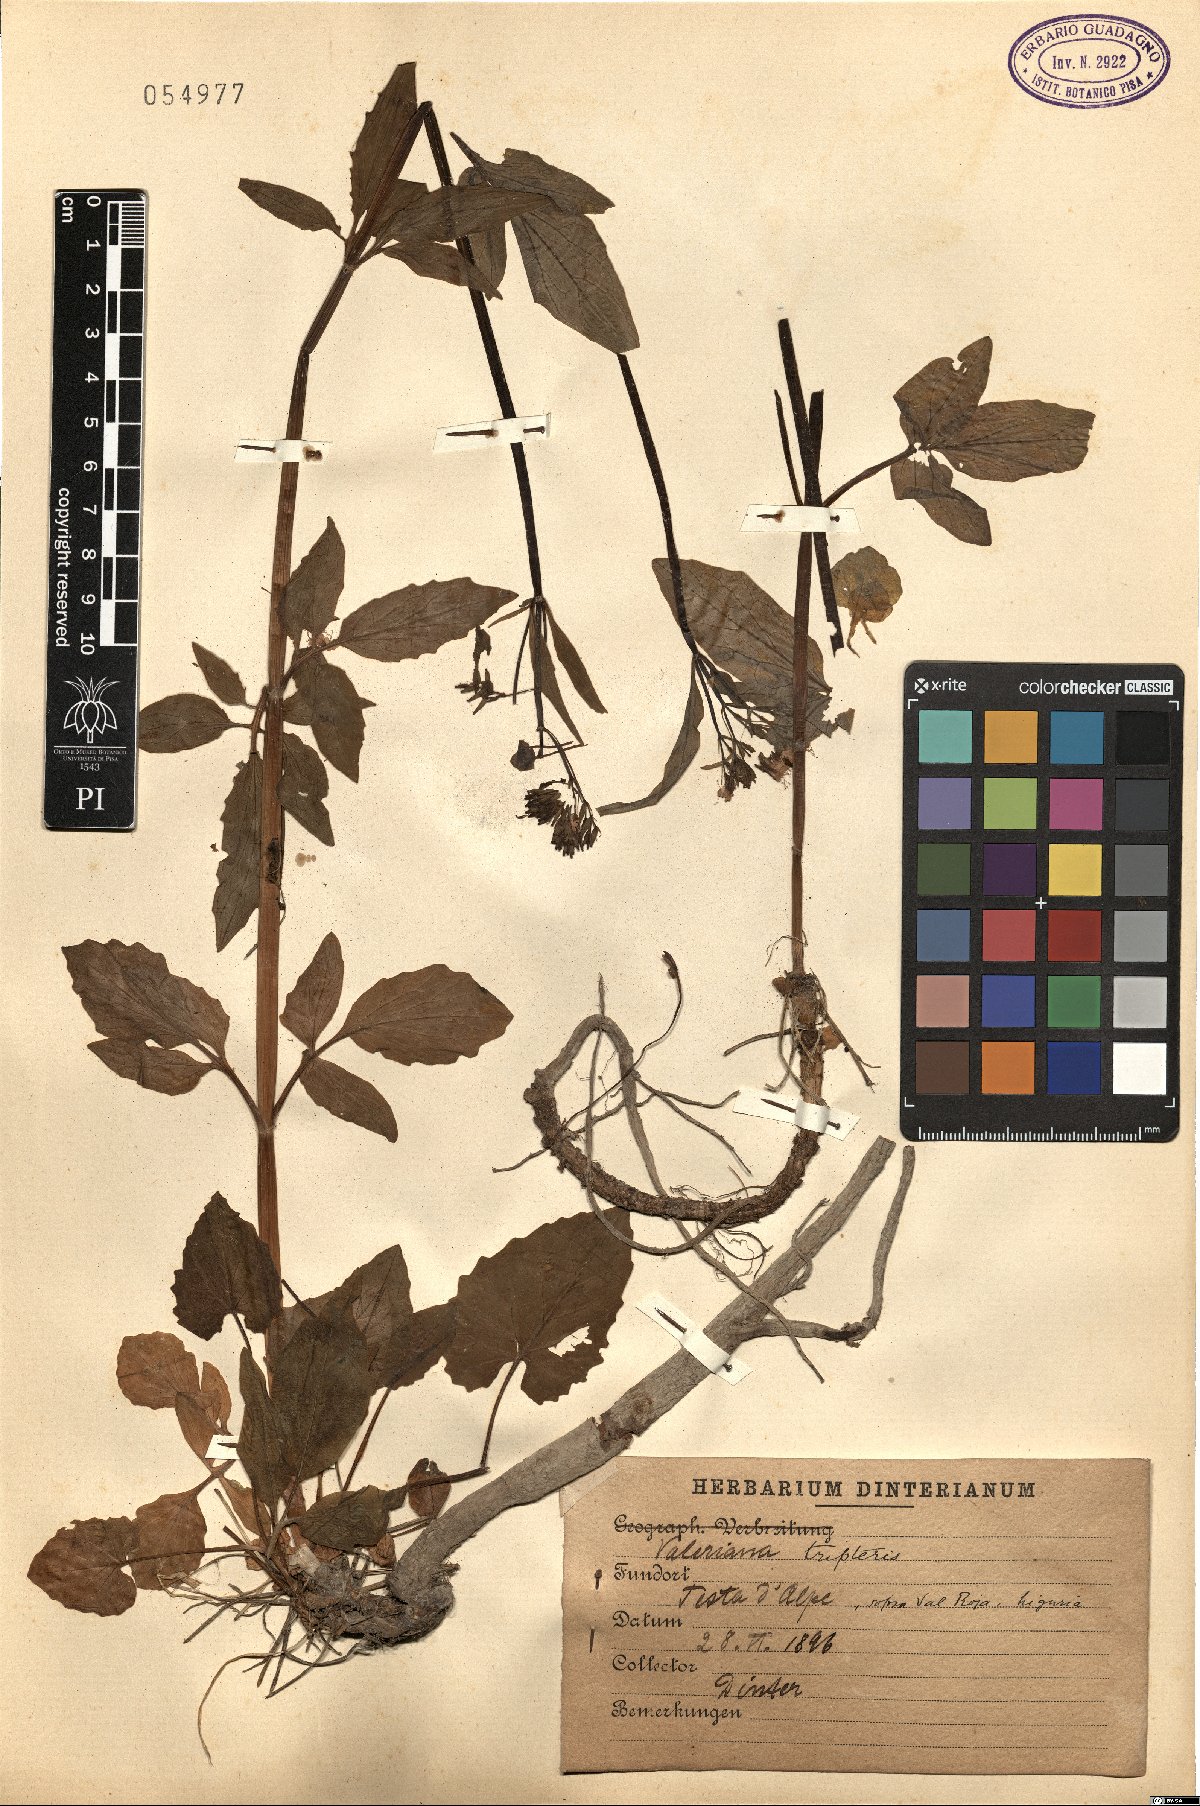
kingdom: Plantae
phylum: Tracheophyta
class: Magnoliopsida
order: Dipsacales
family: Caprifoliaceae
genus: Valeriana
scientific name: Valeriana tripteris
